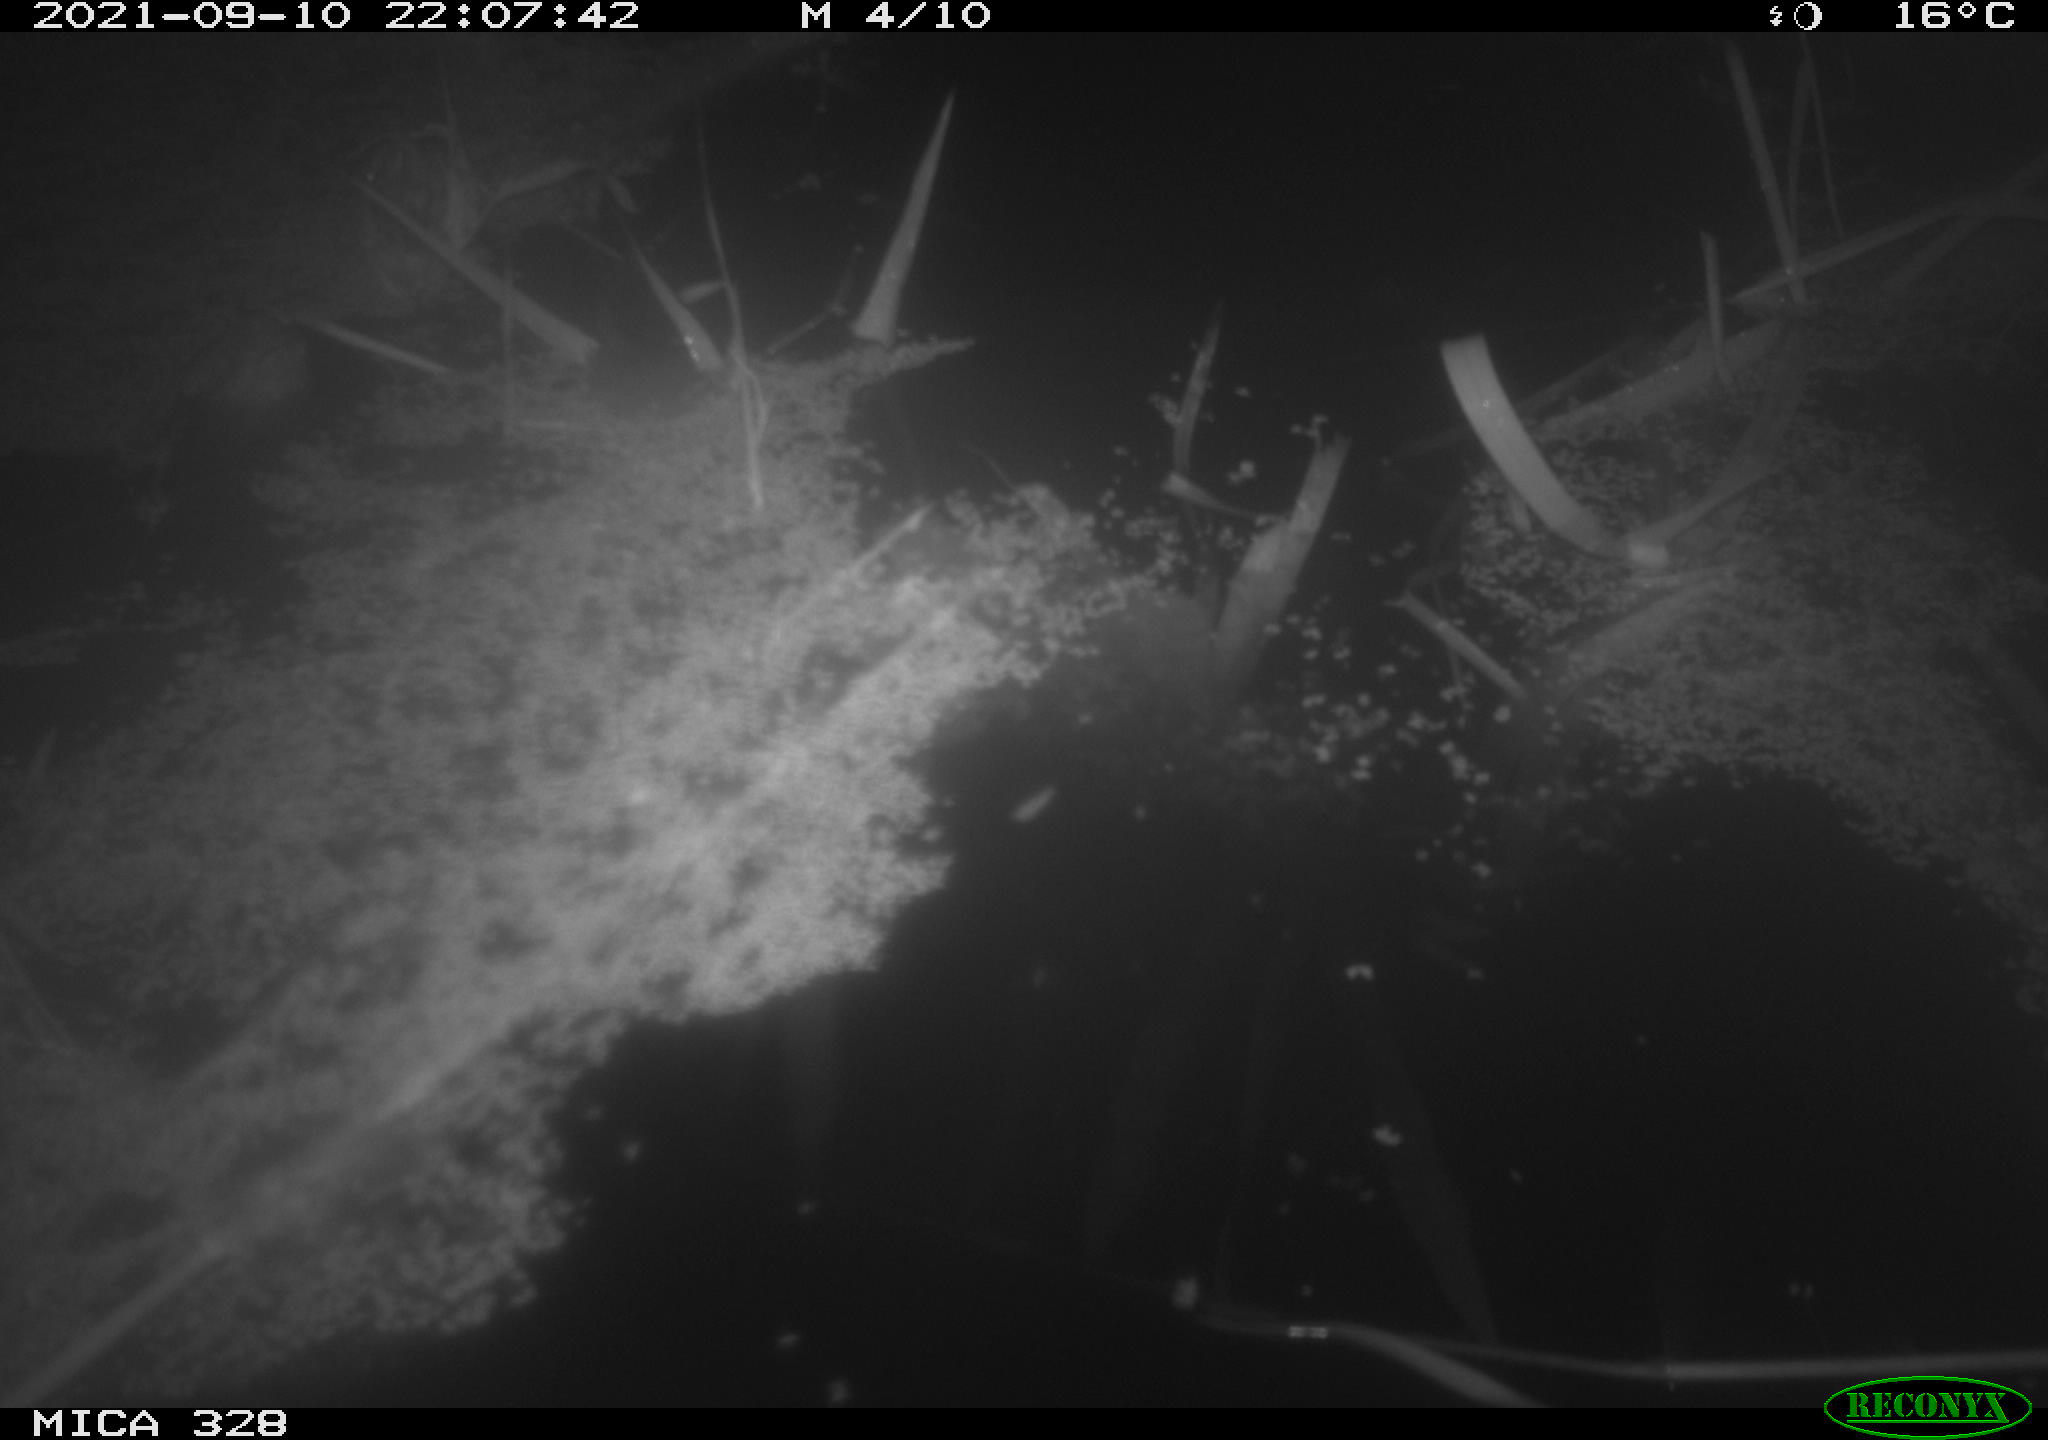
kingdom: Animalia
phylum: Chordata
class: Mammalia
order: Rodentia
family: Cricetidae
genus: Ondatra
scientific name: Ondatra zibethicus
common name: Muskrat
